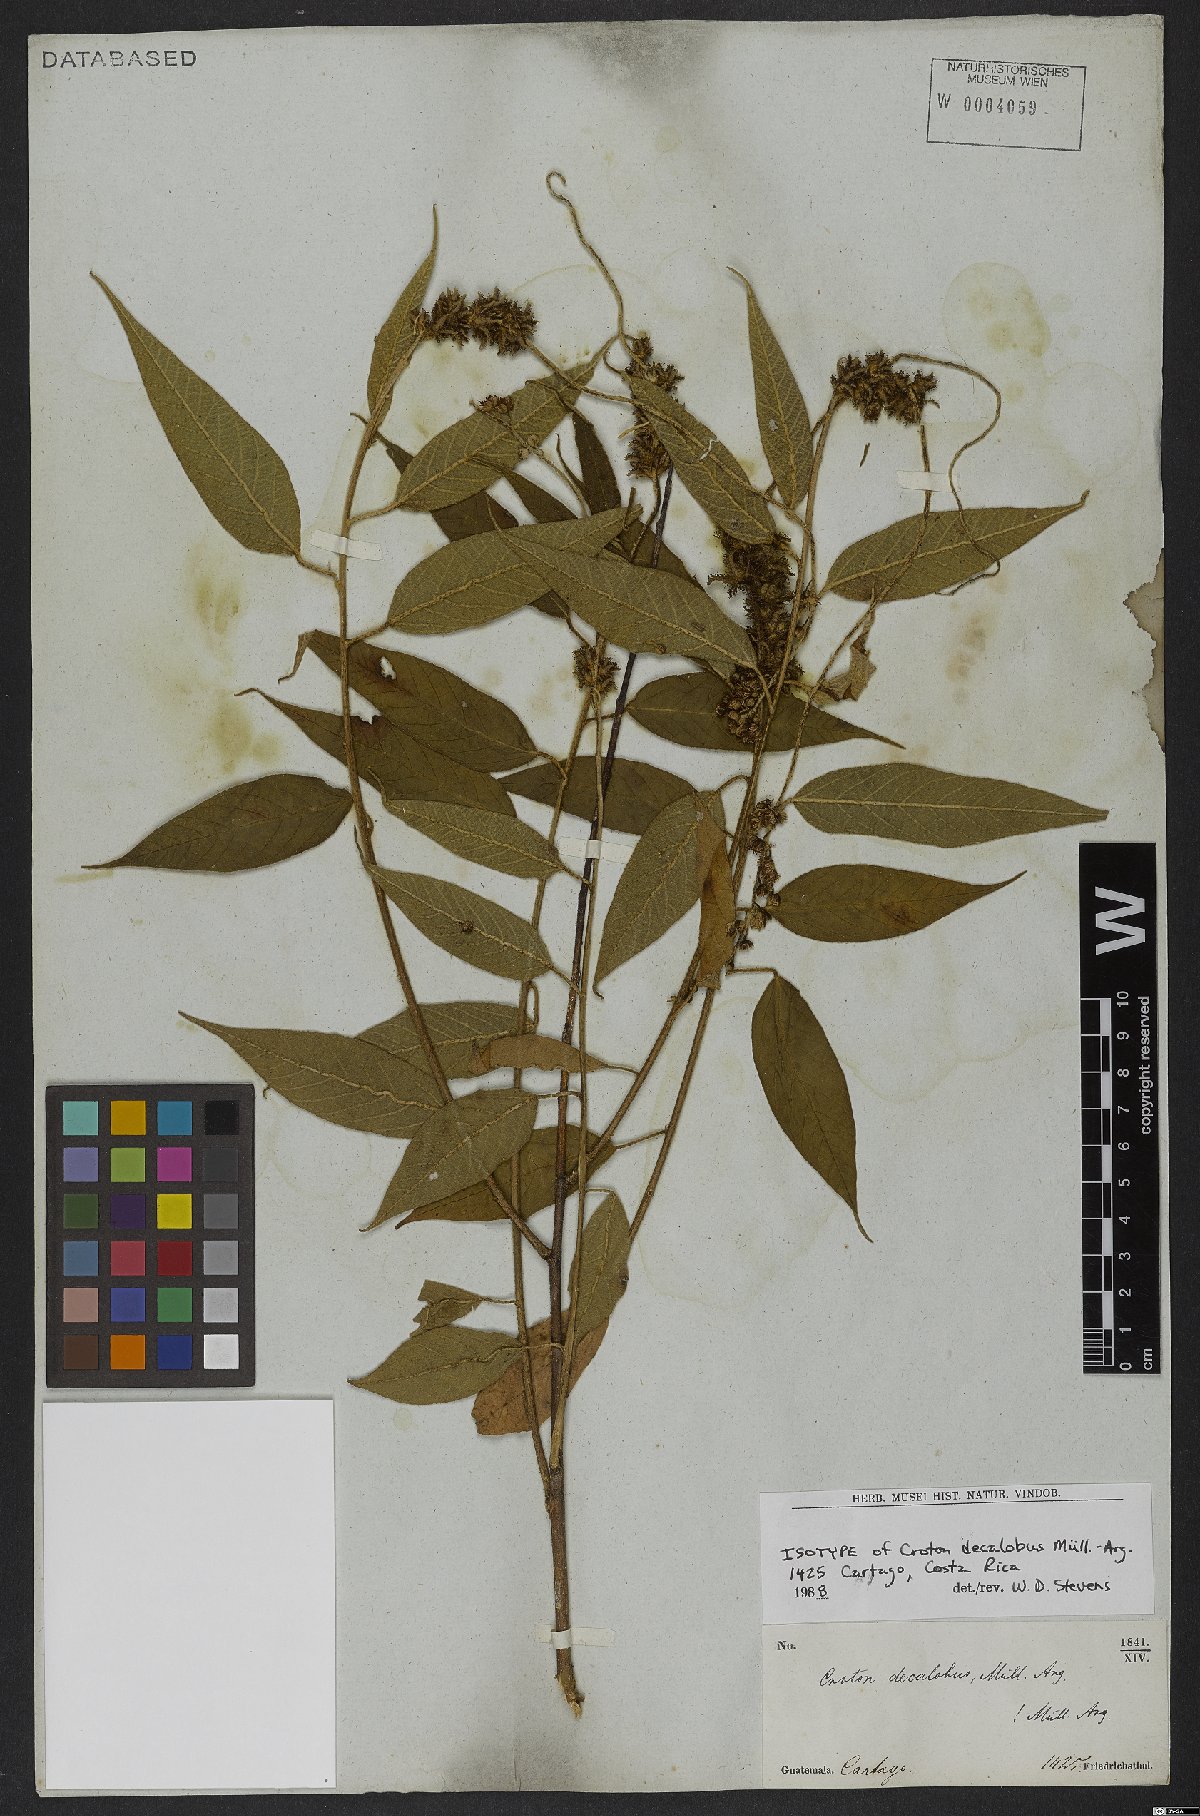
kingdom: Plantae
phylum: Tracheophyta
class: Magnoliopsida
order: Malpighiales
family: Euphorbiaceae
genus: Croton
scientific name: Croton decalobus
